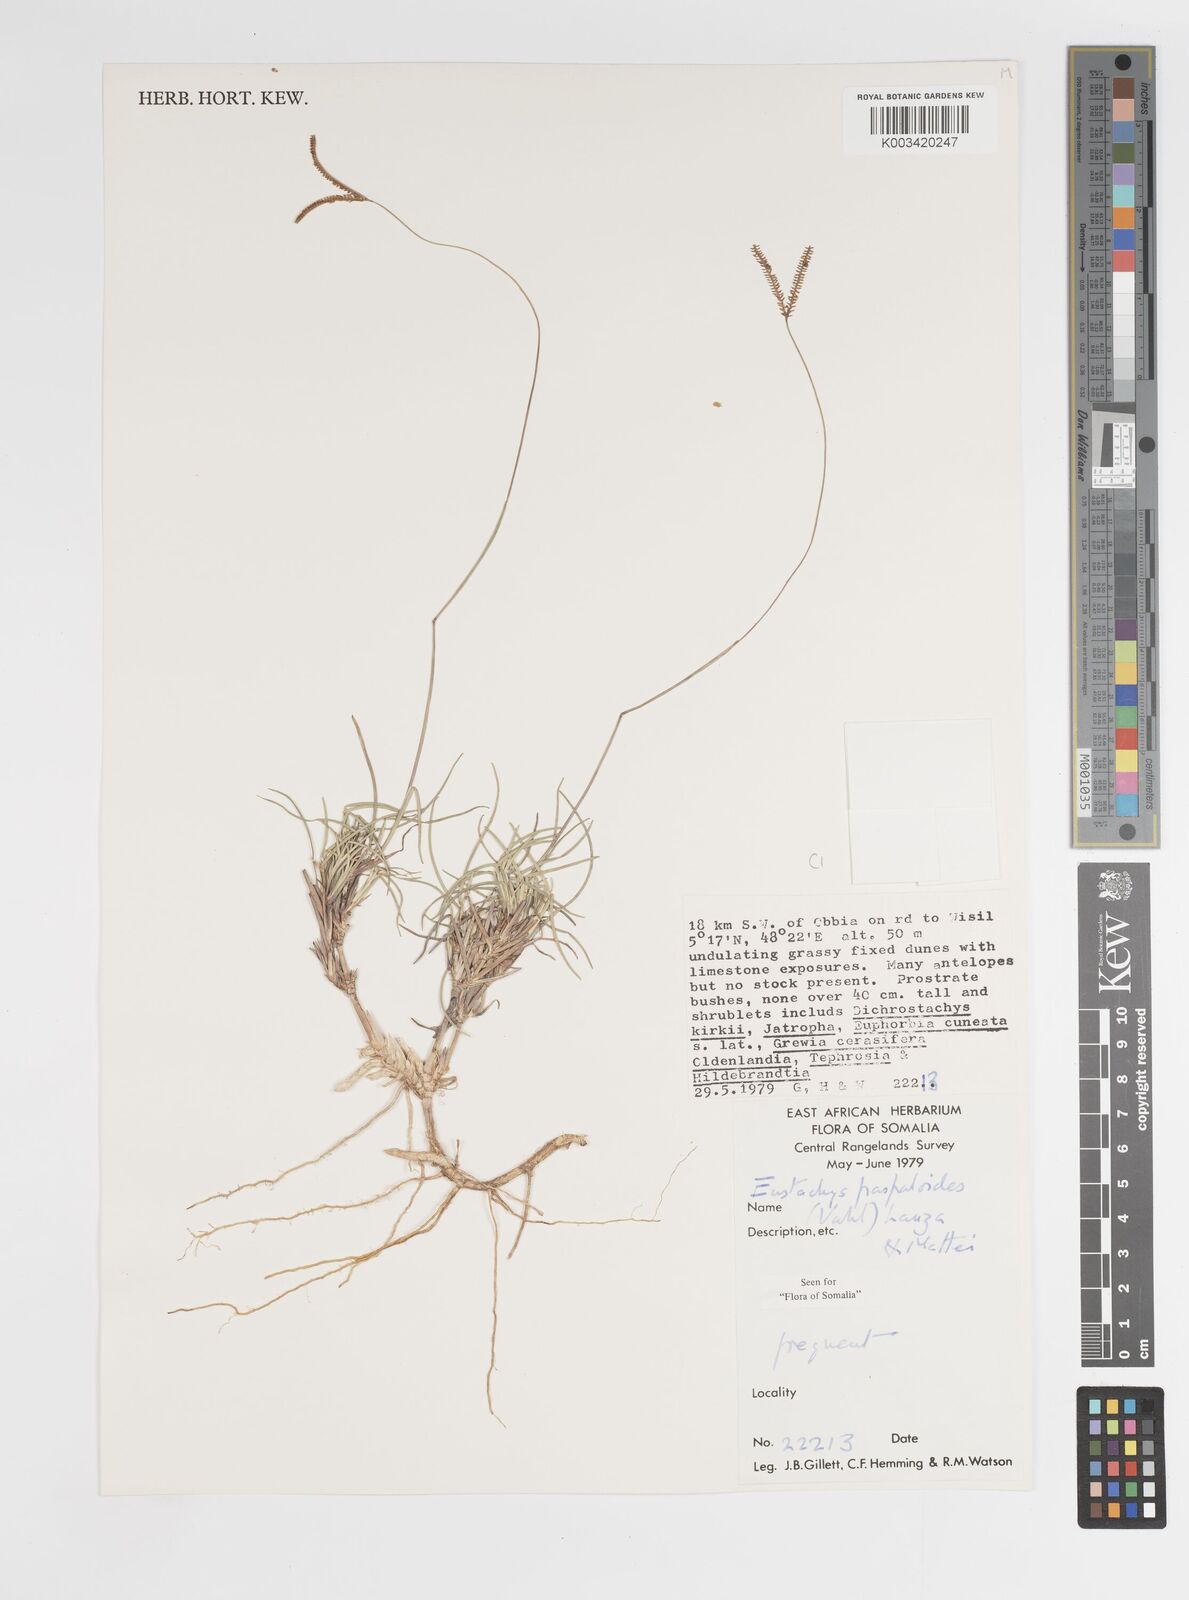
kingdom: Plantae
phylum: Tracheophyta
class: Liliopsida
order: Poales
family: Poaceae
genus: Eustachys
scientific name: Eustachys paspaloides
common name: Caribbean fingergrass
